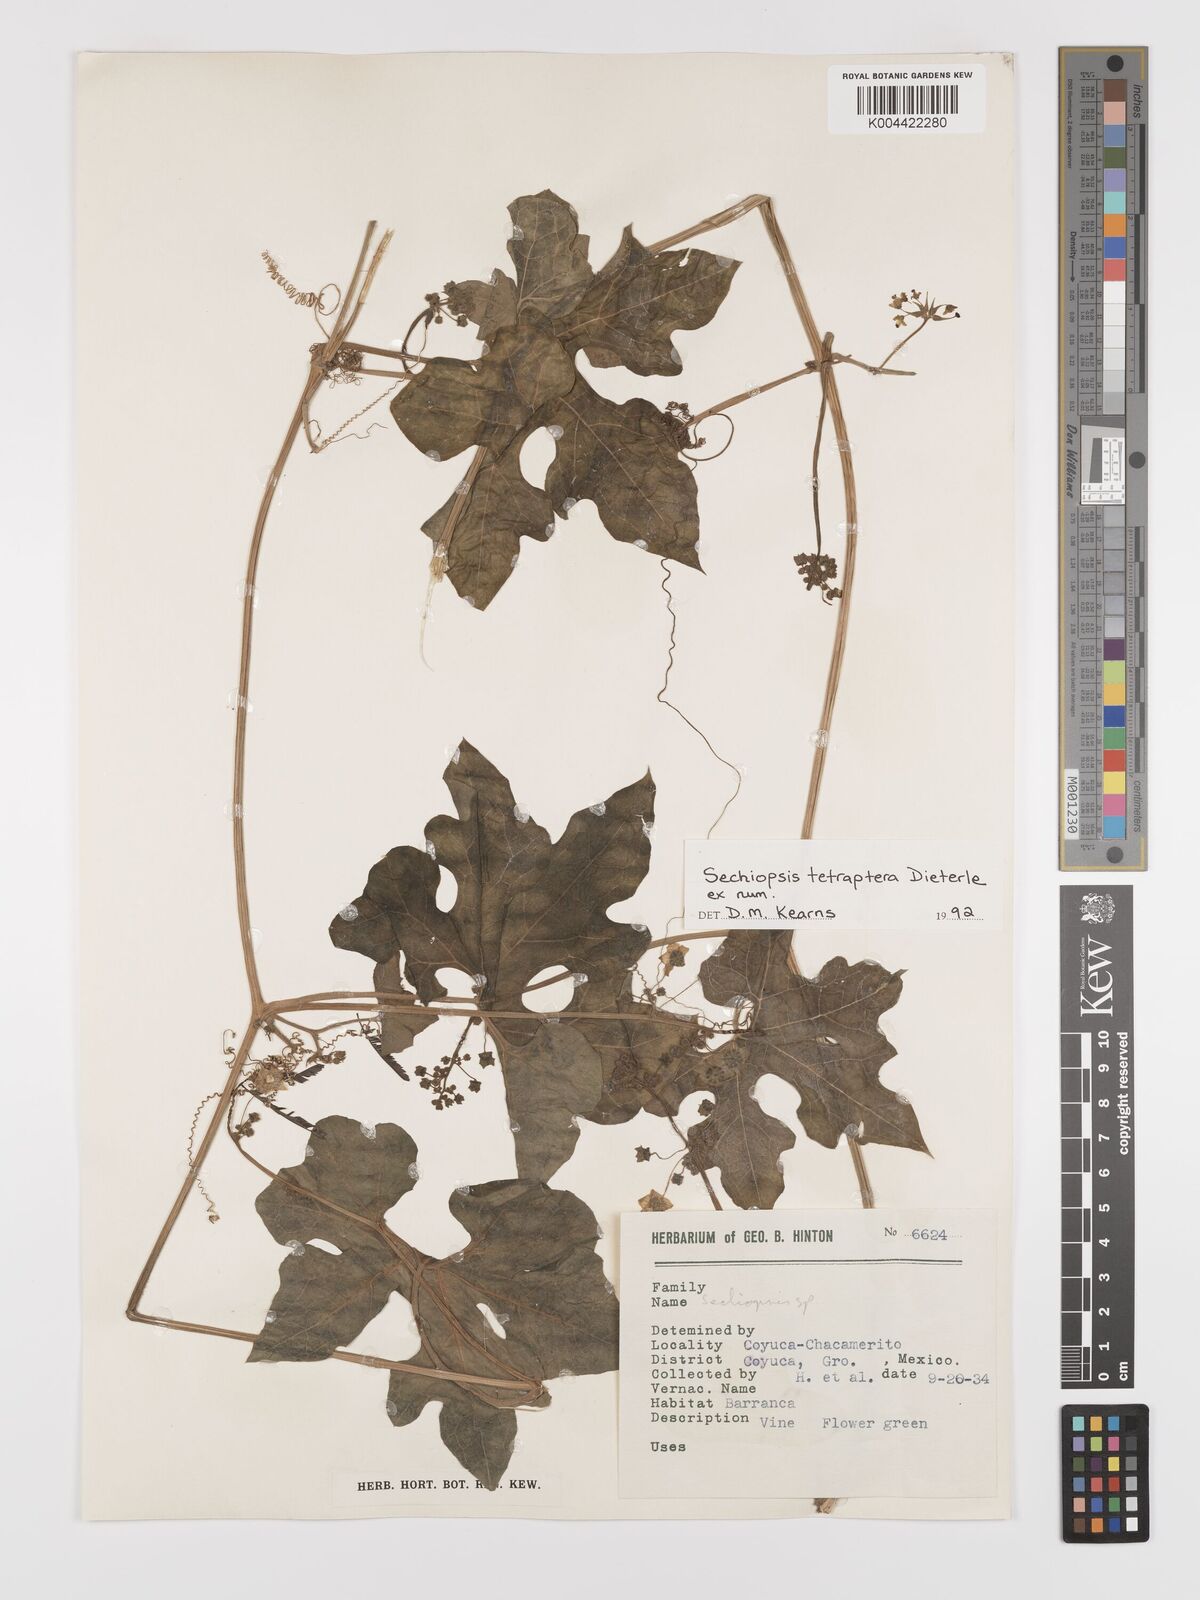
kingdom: Plantae
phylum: Tracheophyta
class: Magnoliopsida
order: Cucurbitales
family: Cucurbitaceae
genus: Sechiopsis
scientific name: Sechiopsis tetraptera
